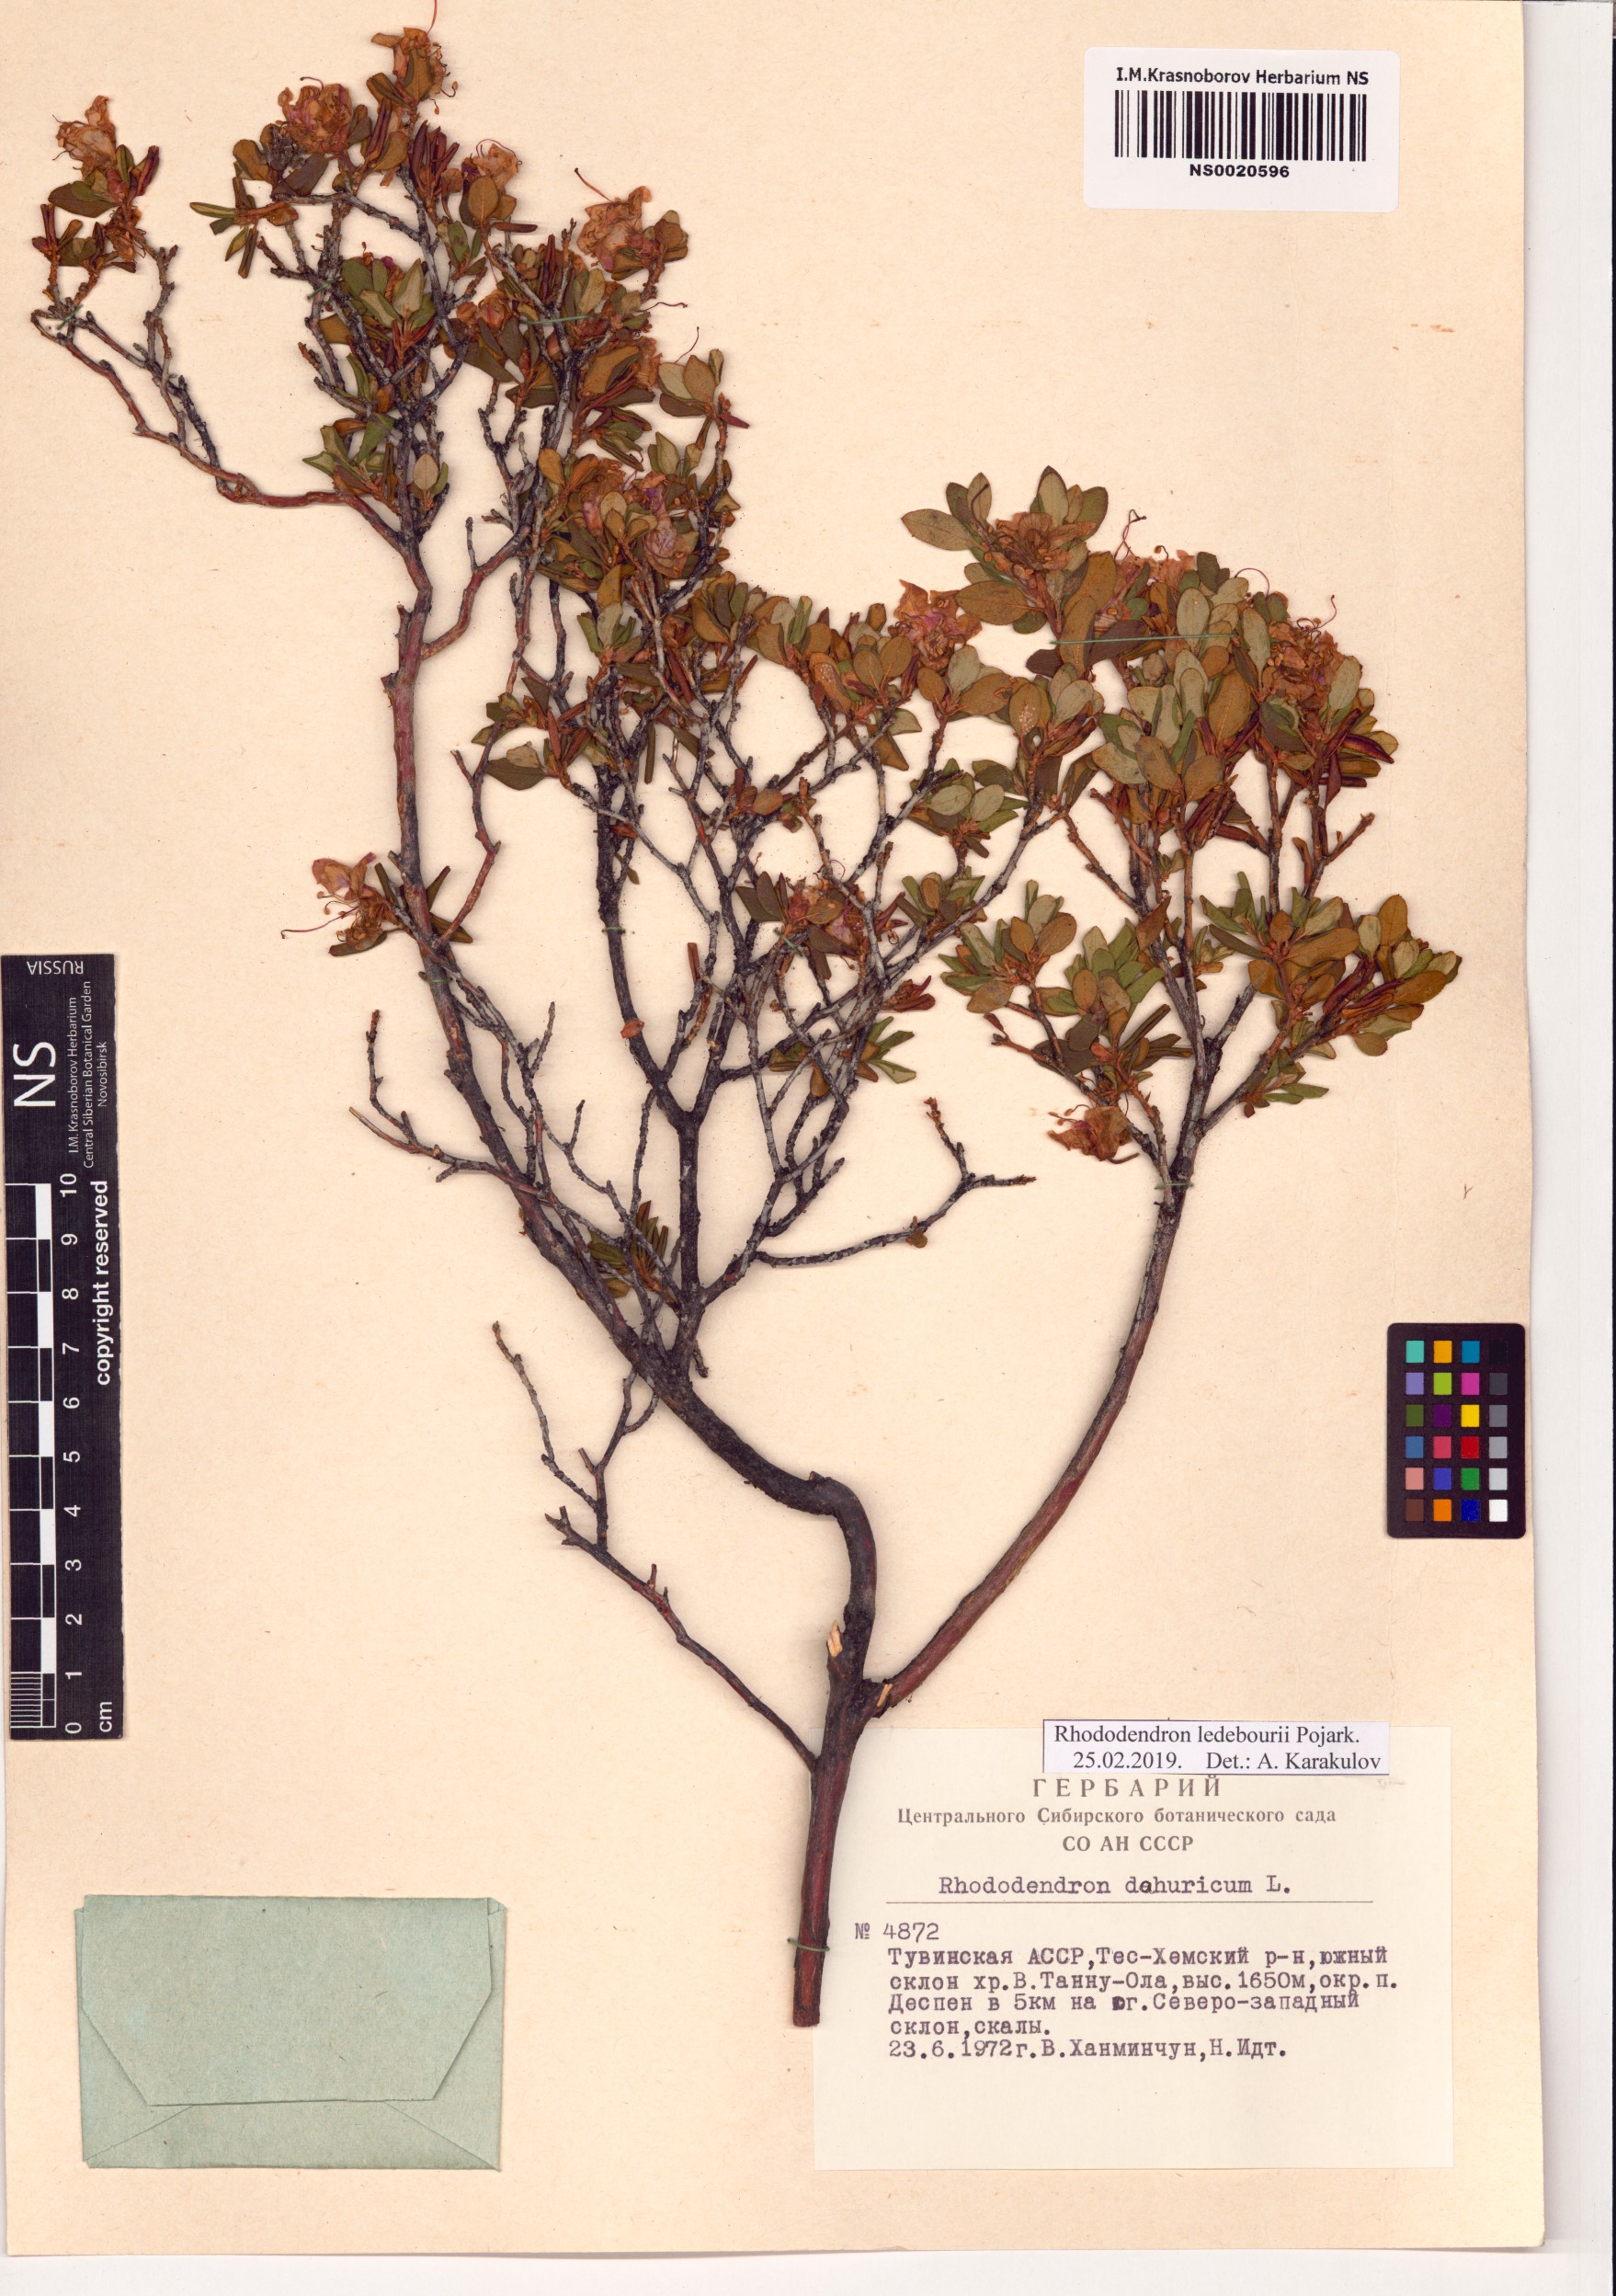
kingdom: Plantae
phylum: Tracheophyta
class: Magnoliopsida
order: Ericales
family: Ericaceae
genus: Rhododendron
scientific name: Rhododendron dauricum
